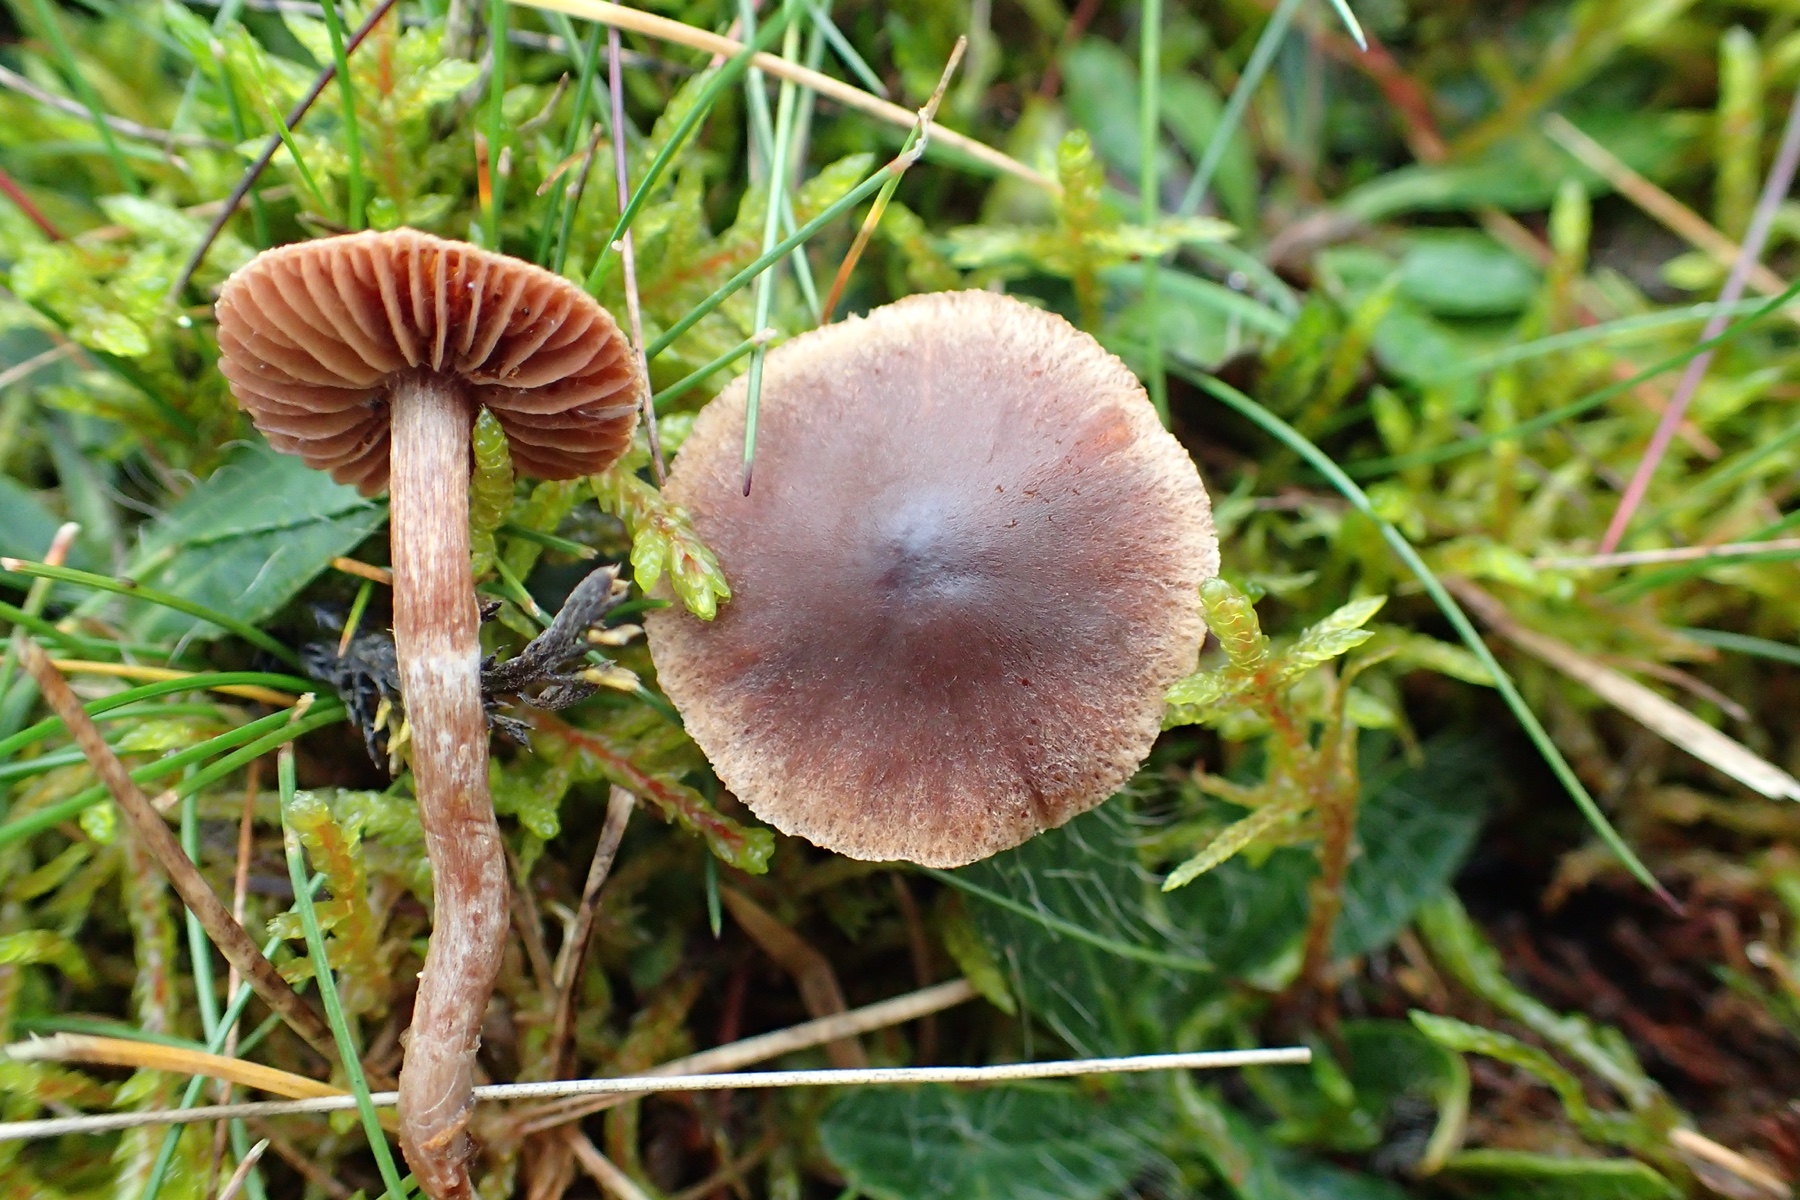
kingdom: Fungi
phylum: Basidiomycota
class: Agaricomycetes
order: Agaricales
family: Cortinariaceae
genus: Cortinarius
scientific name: Cortinarius
